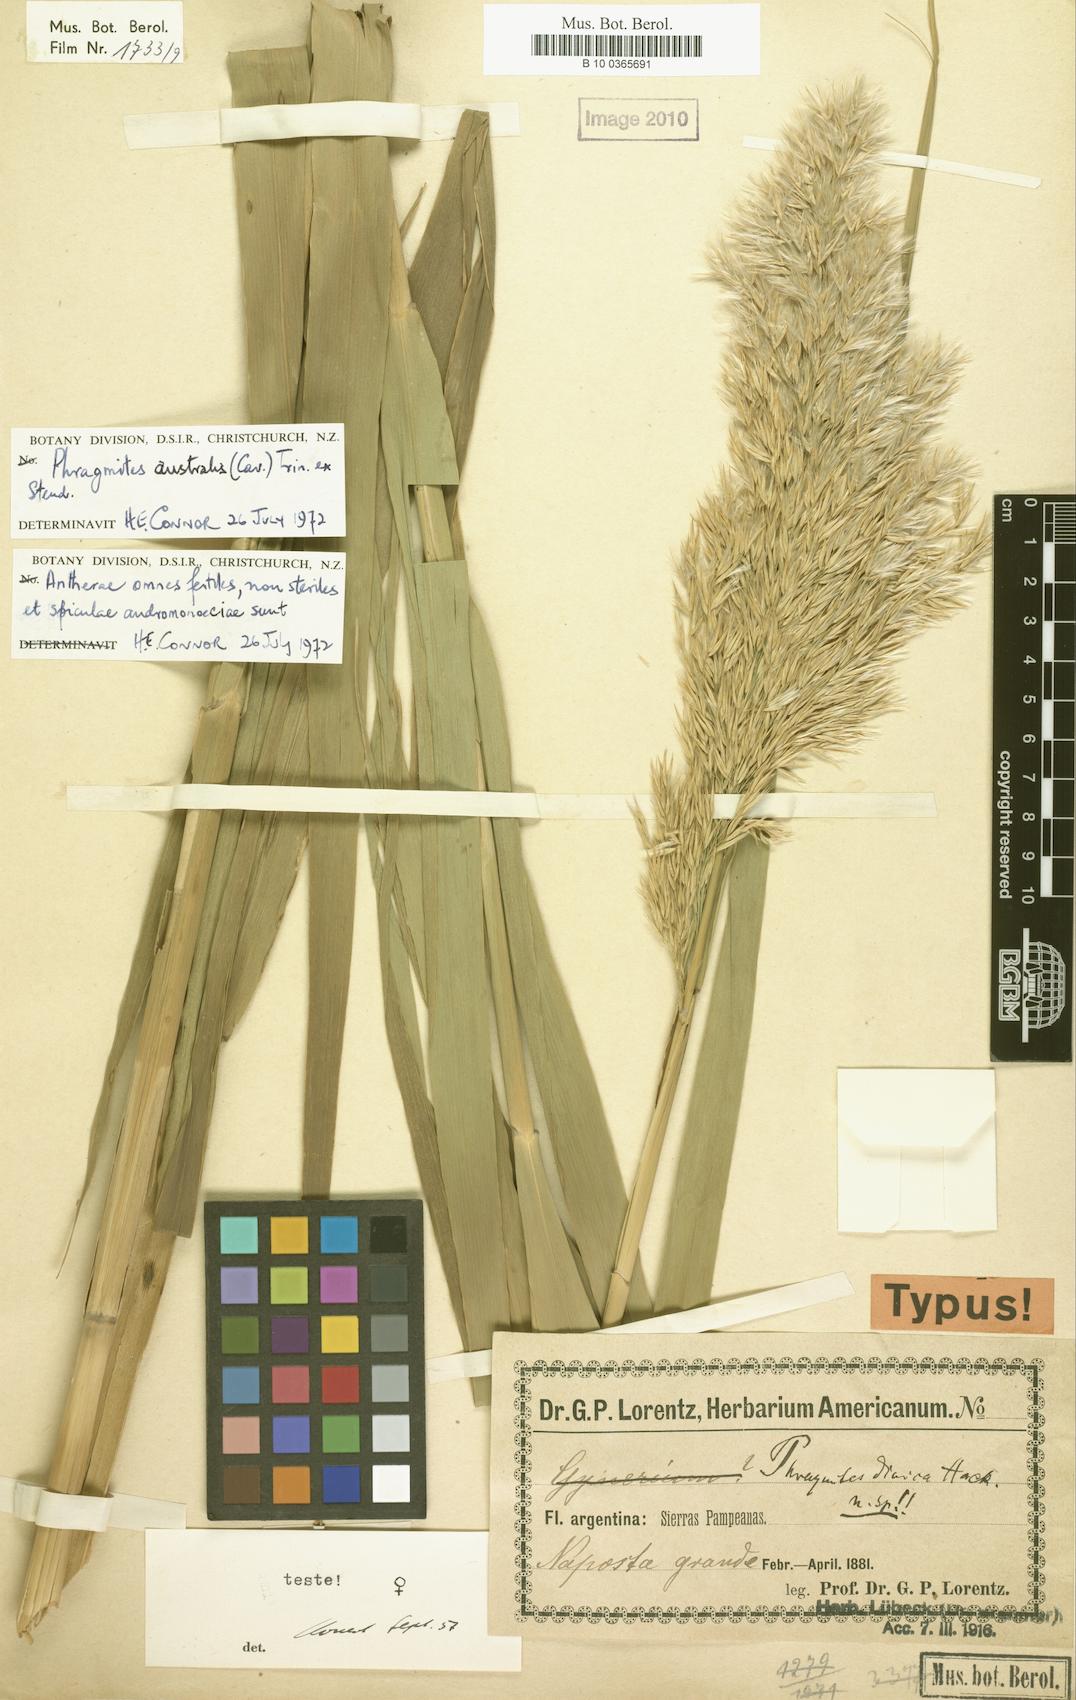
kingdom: Plantae
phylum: Tracheophyta
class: Liliopsida
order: Poales
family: Poaceae
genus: Phragmites
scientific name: Phragmites australis
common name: Common reed
